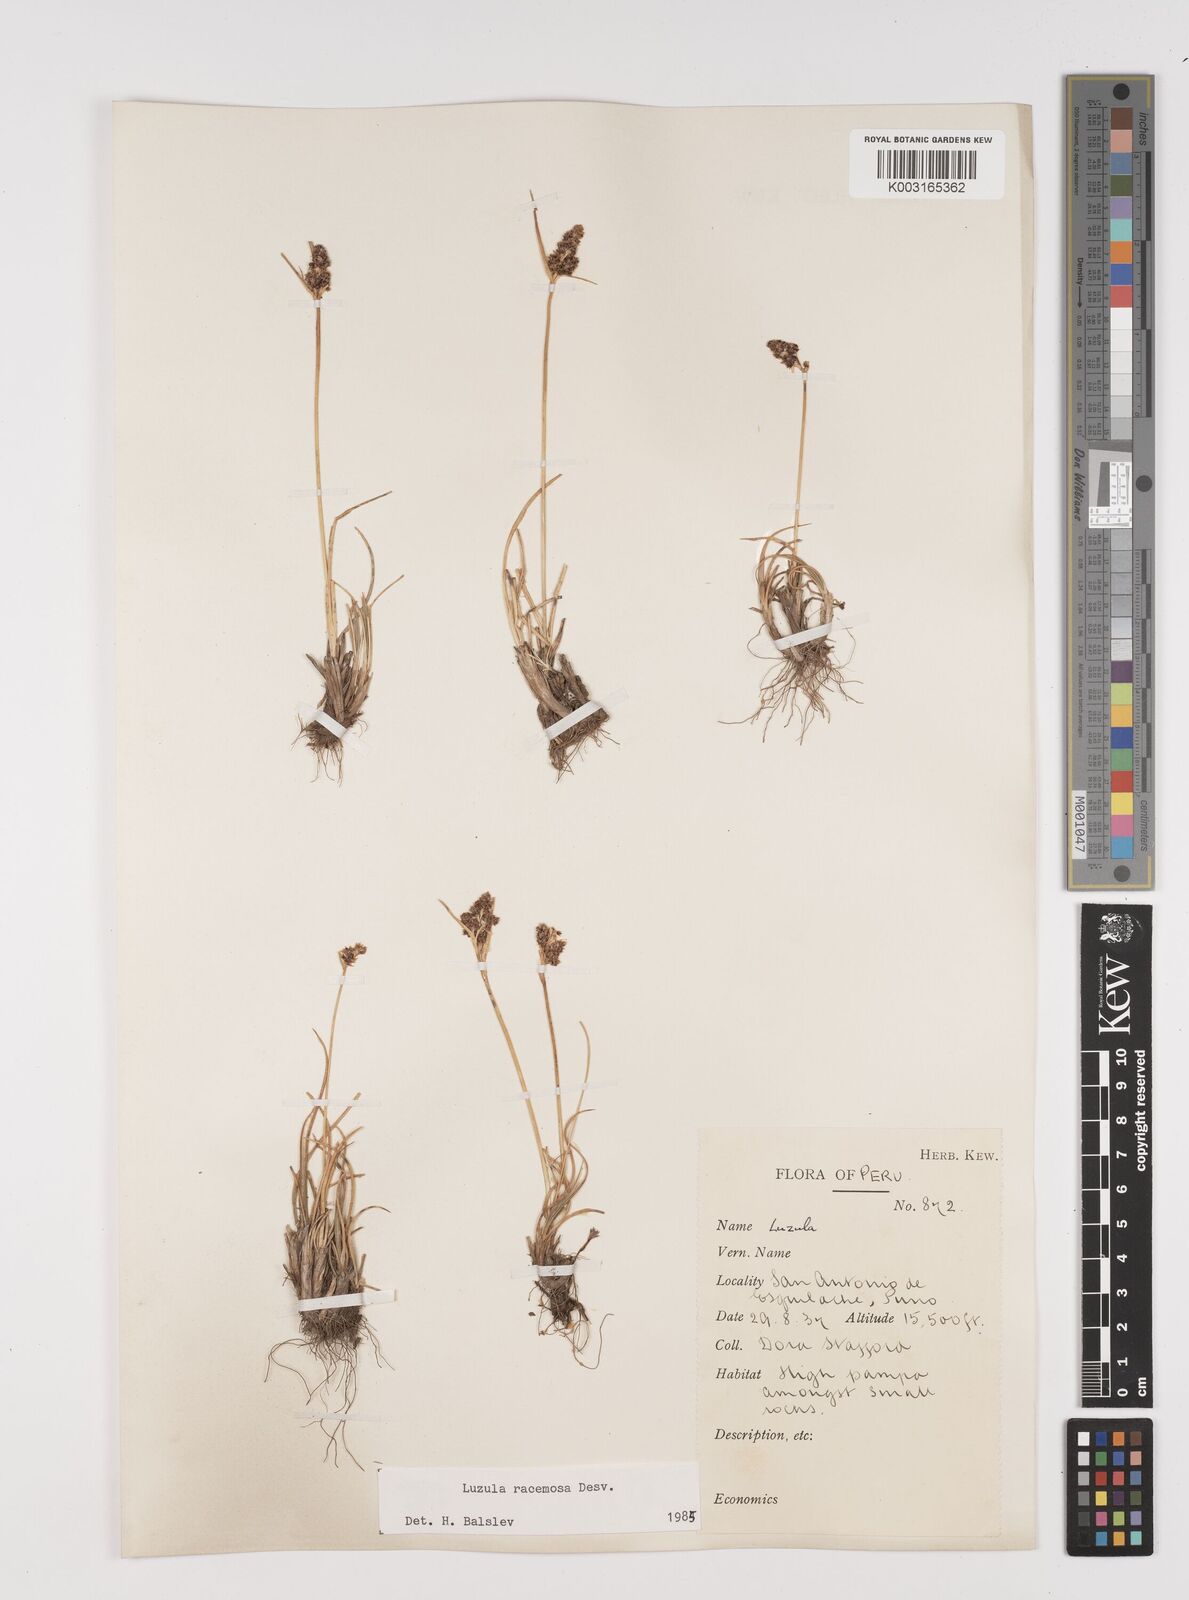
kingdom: Plantae
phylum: Tracheophyta
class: Liliopsida
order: Poales
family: Juncaceae
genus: Luzula
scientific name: Luzula racemosa
